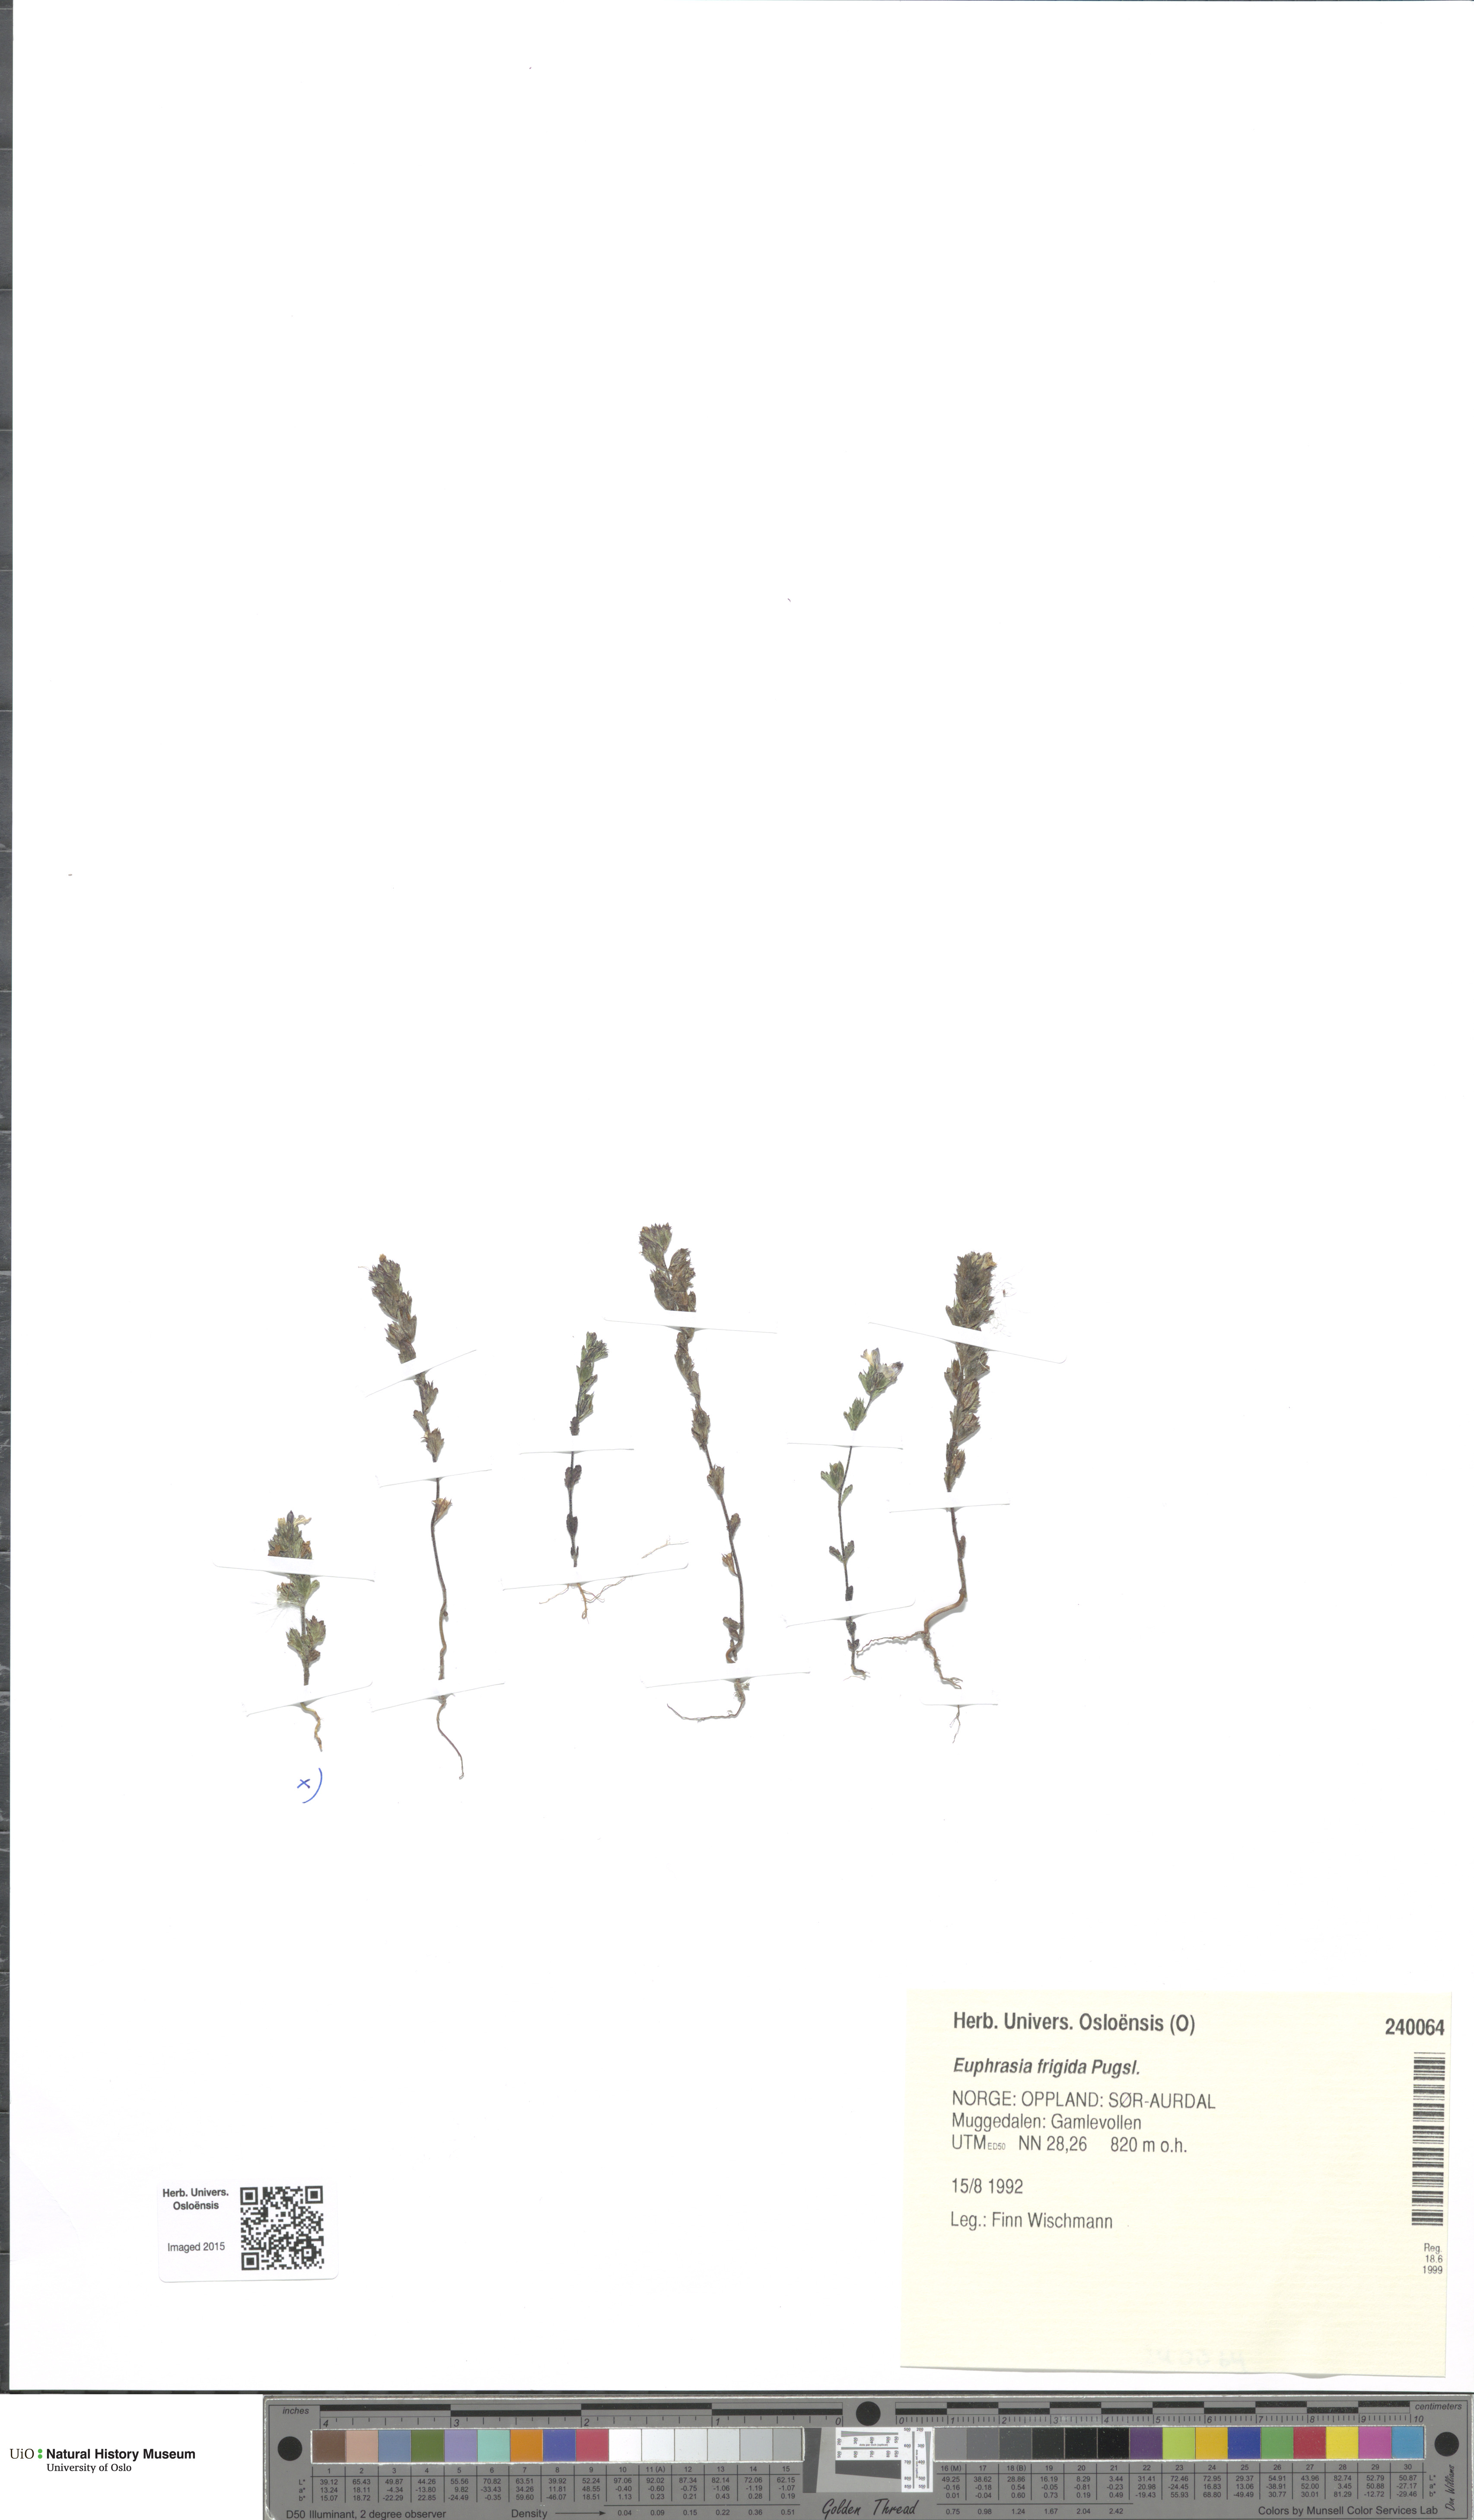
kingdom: Plantae
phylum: Tracheophyta
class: Magnoliopsida
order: Lamiales
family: Orobanchaceae
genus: Euphrasia
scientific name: Euphrasia frigida
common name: An eyebright
